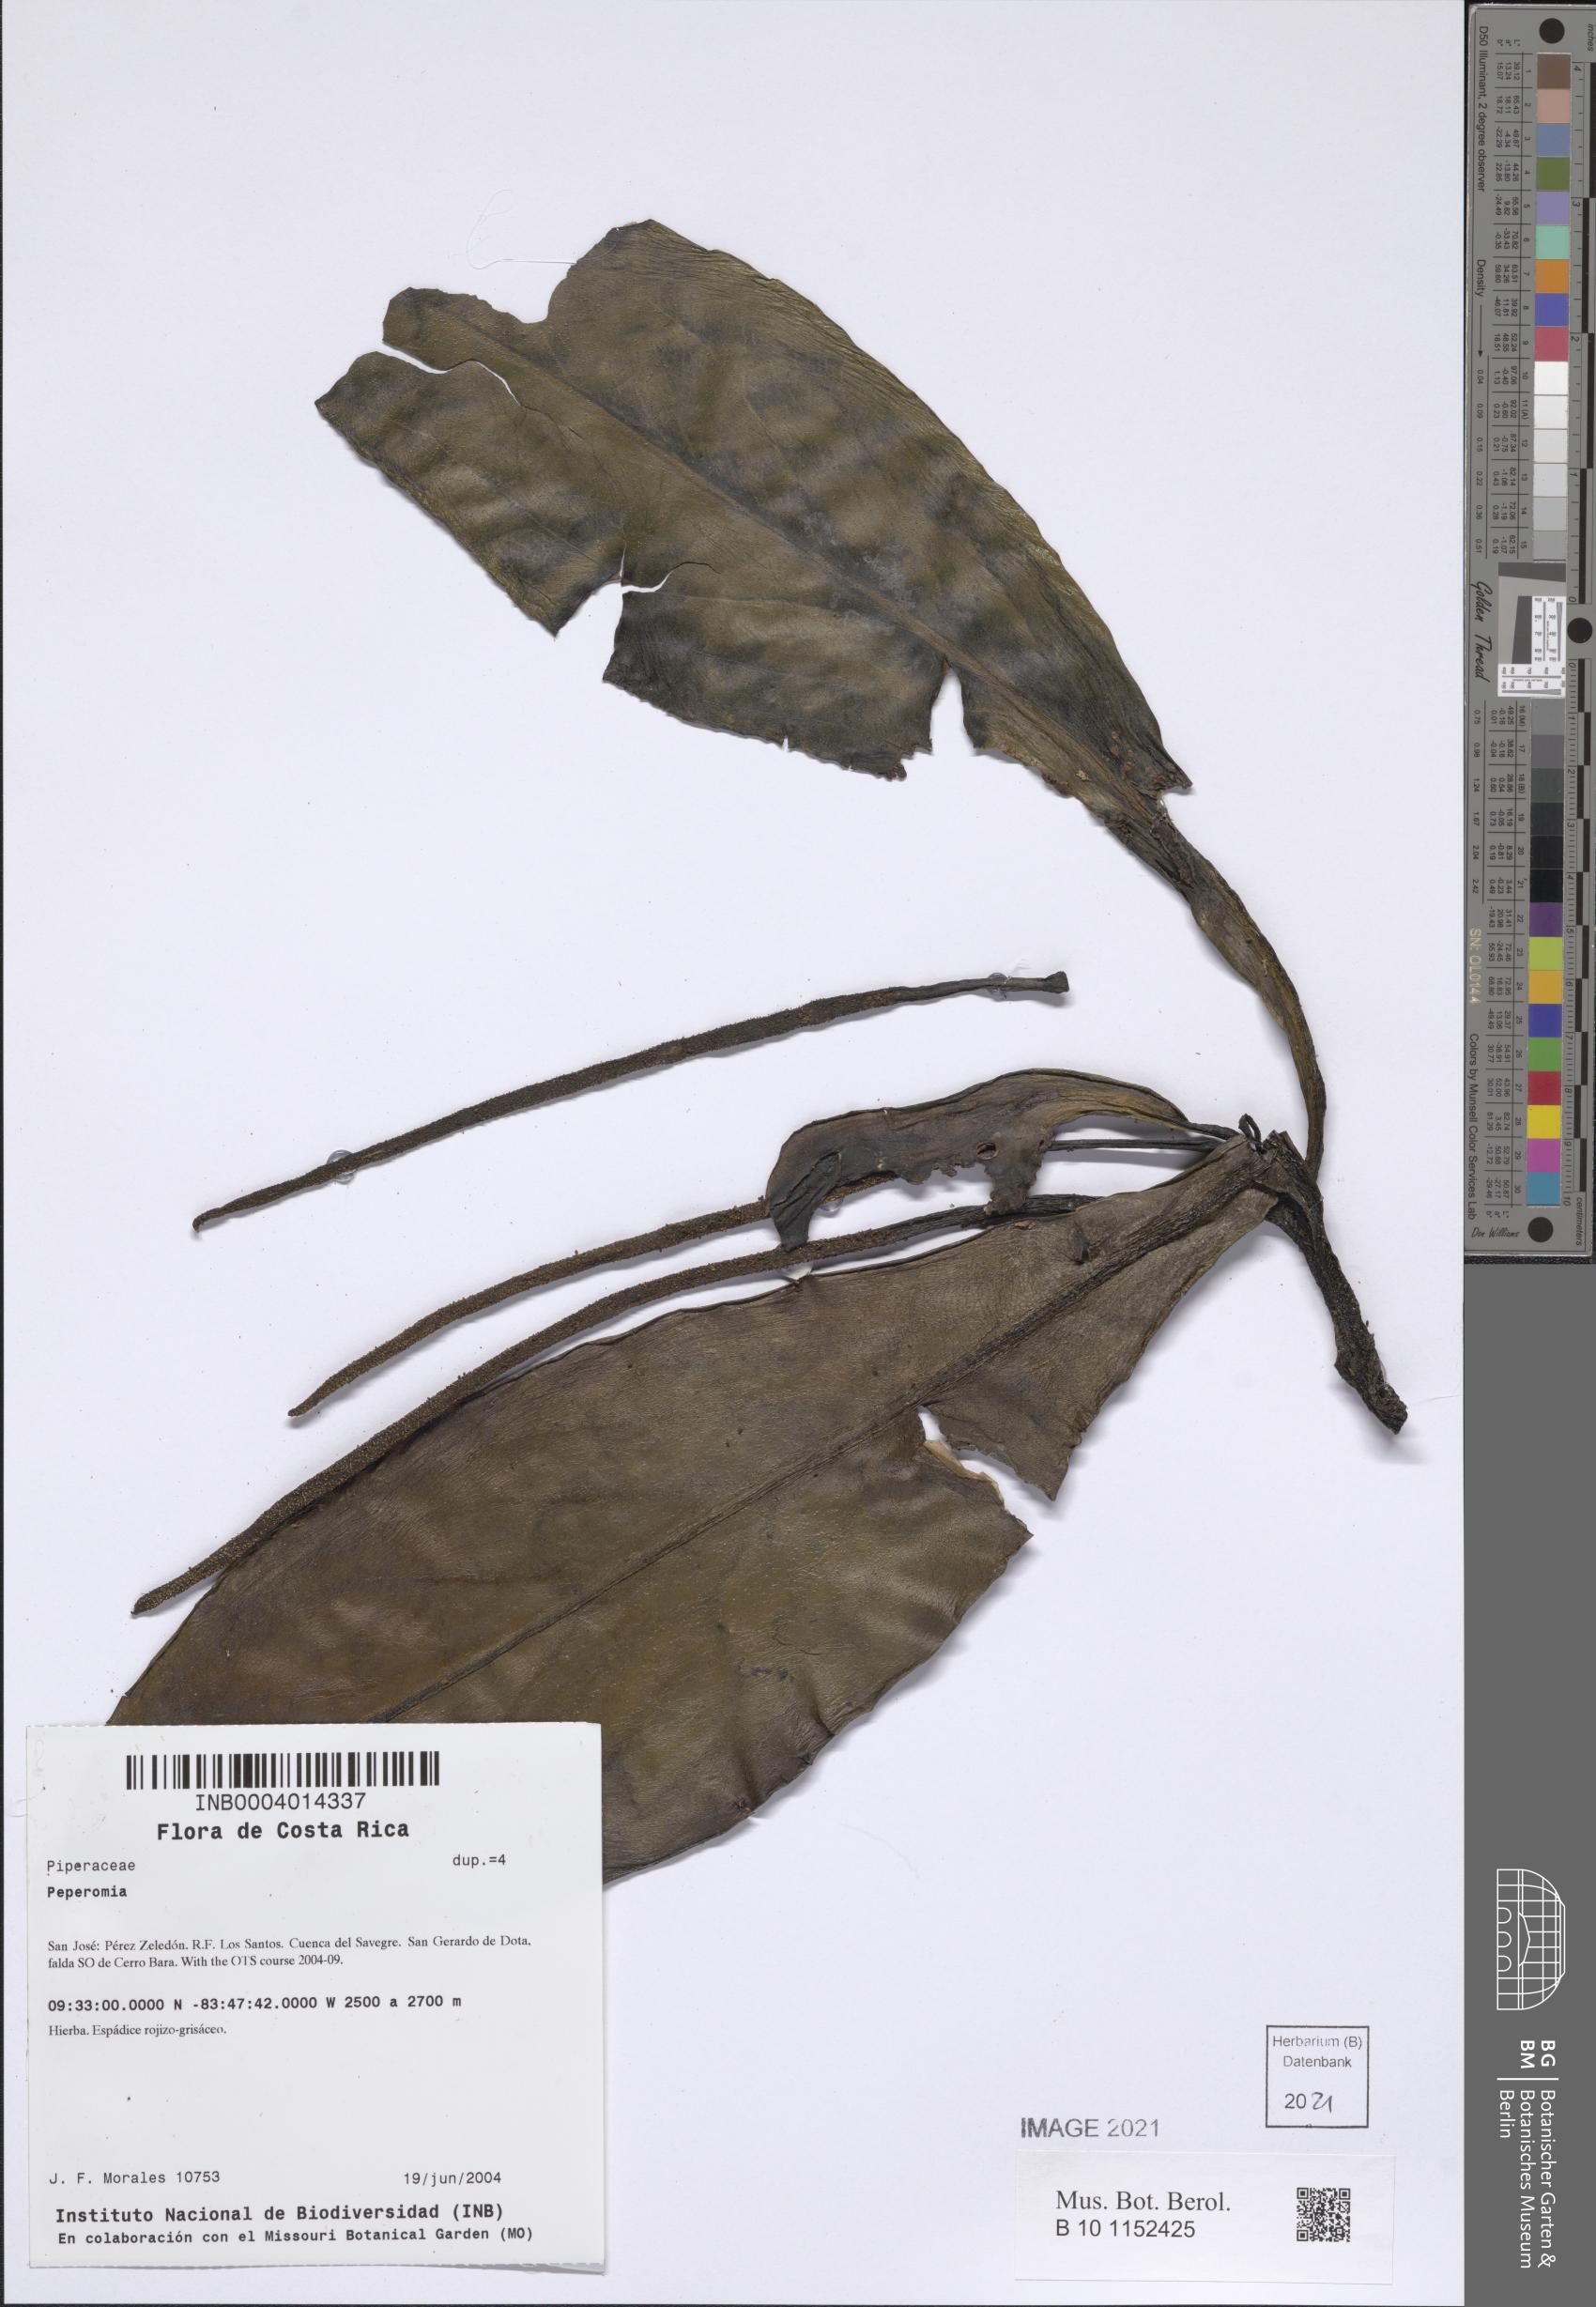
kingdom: Plantae
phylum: Tracheophyta
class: Magnoliopsida
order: Piperales
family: Piperaceae
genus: Peperomia
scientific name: Peperomia
